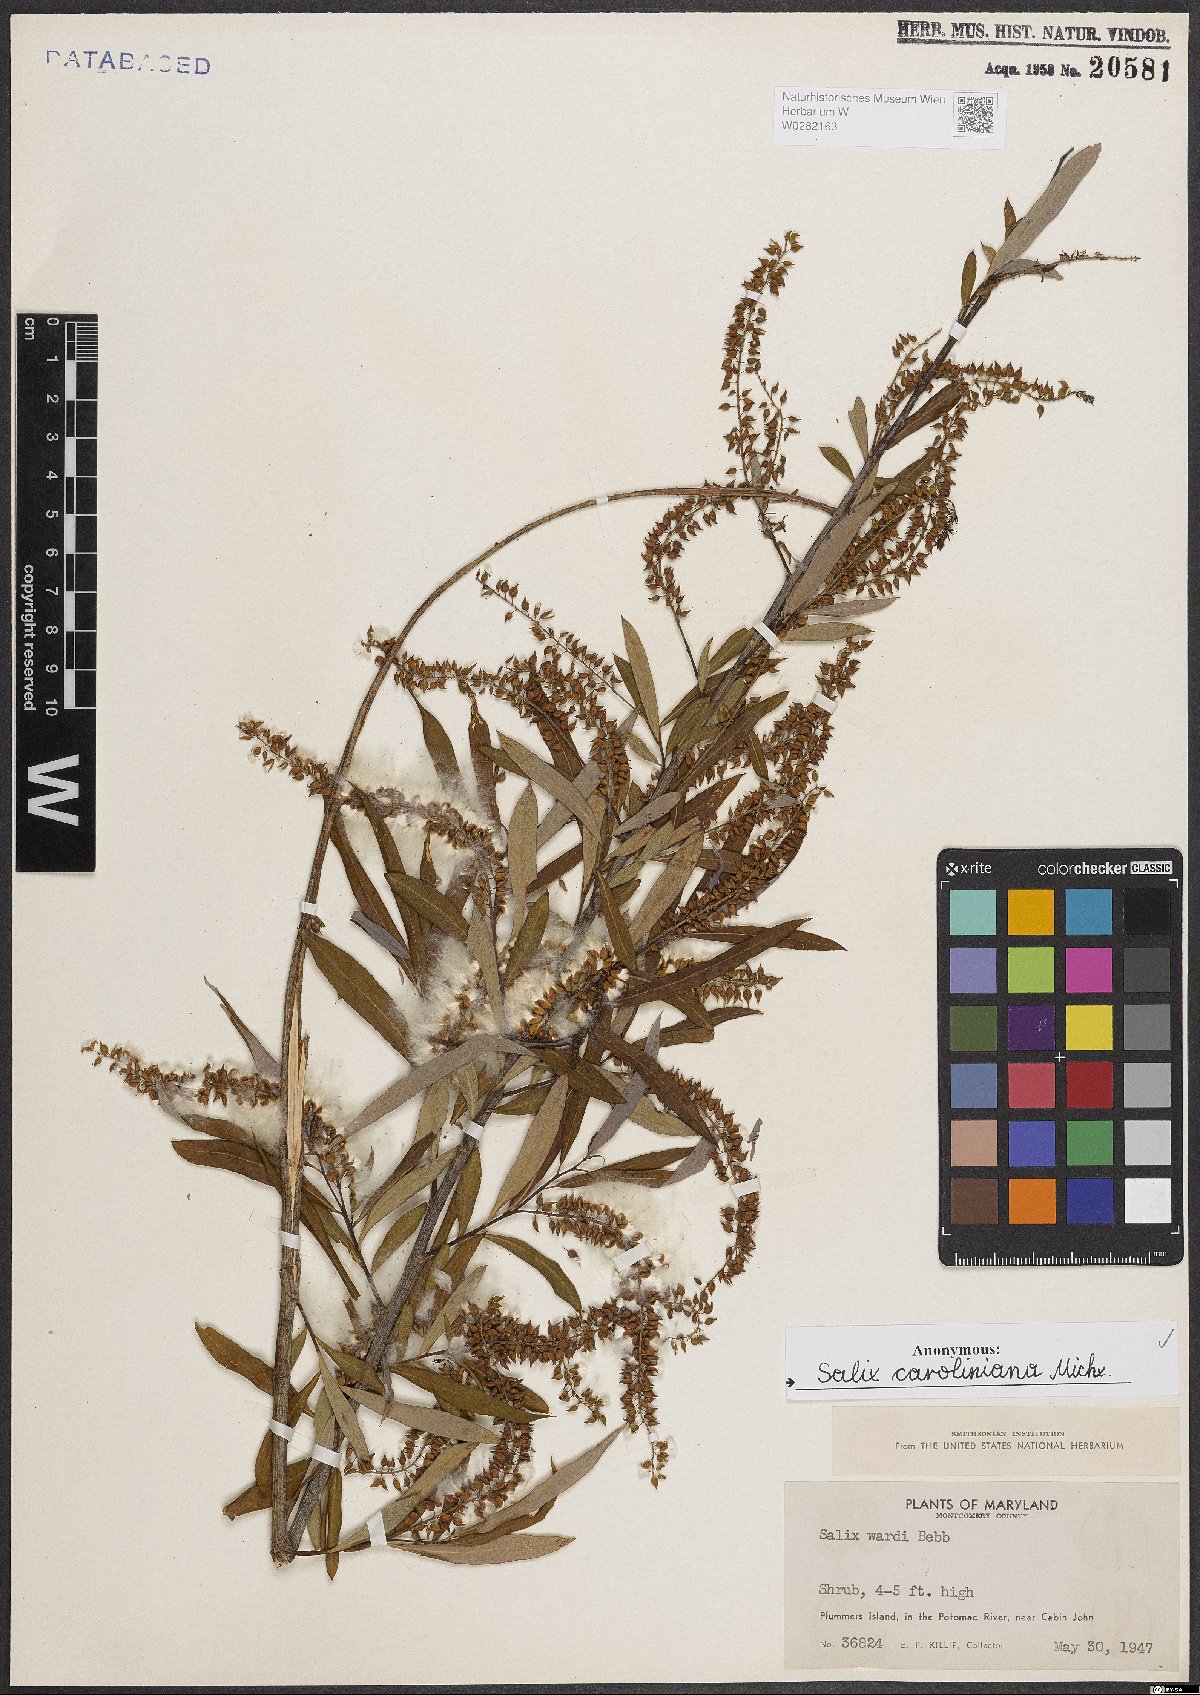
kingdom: Plantae
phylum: Tracheophyta
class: Magnoliopsida
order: Malpighiales
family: Salicaceae
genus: Salix
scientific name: Salix caroliniana
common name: Carolina willow
